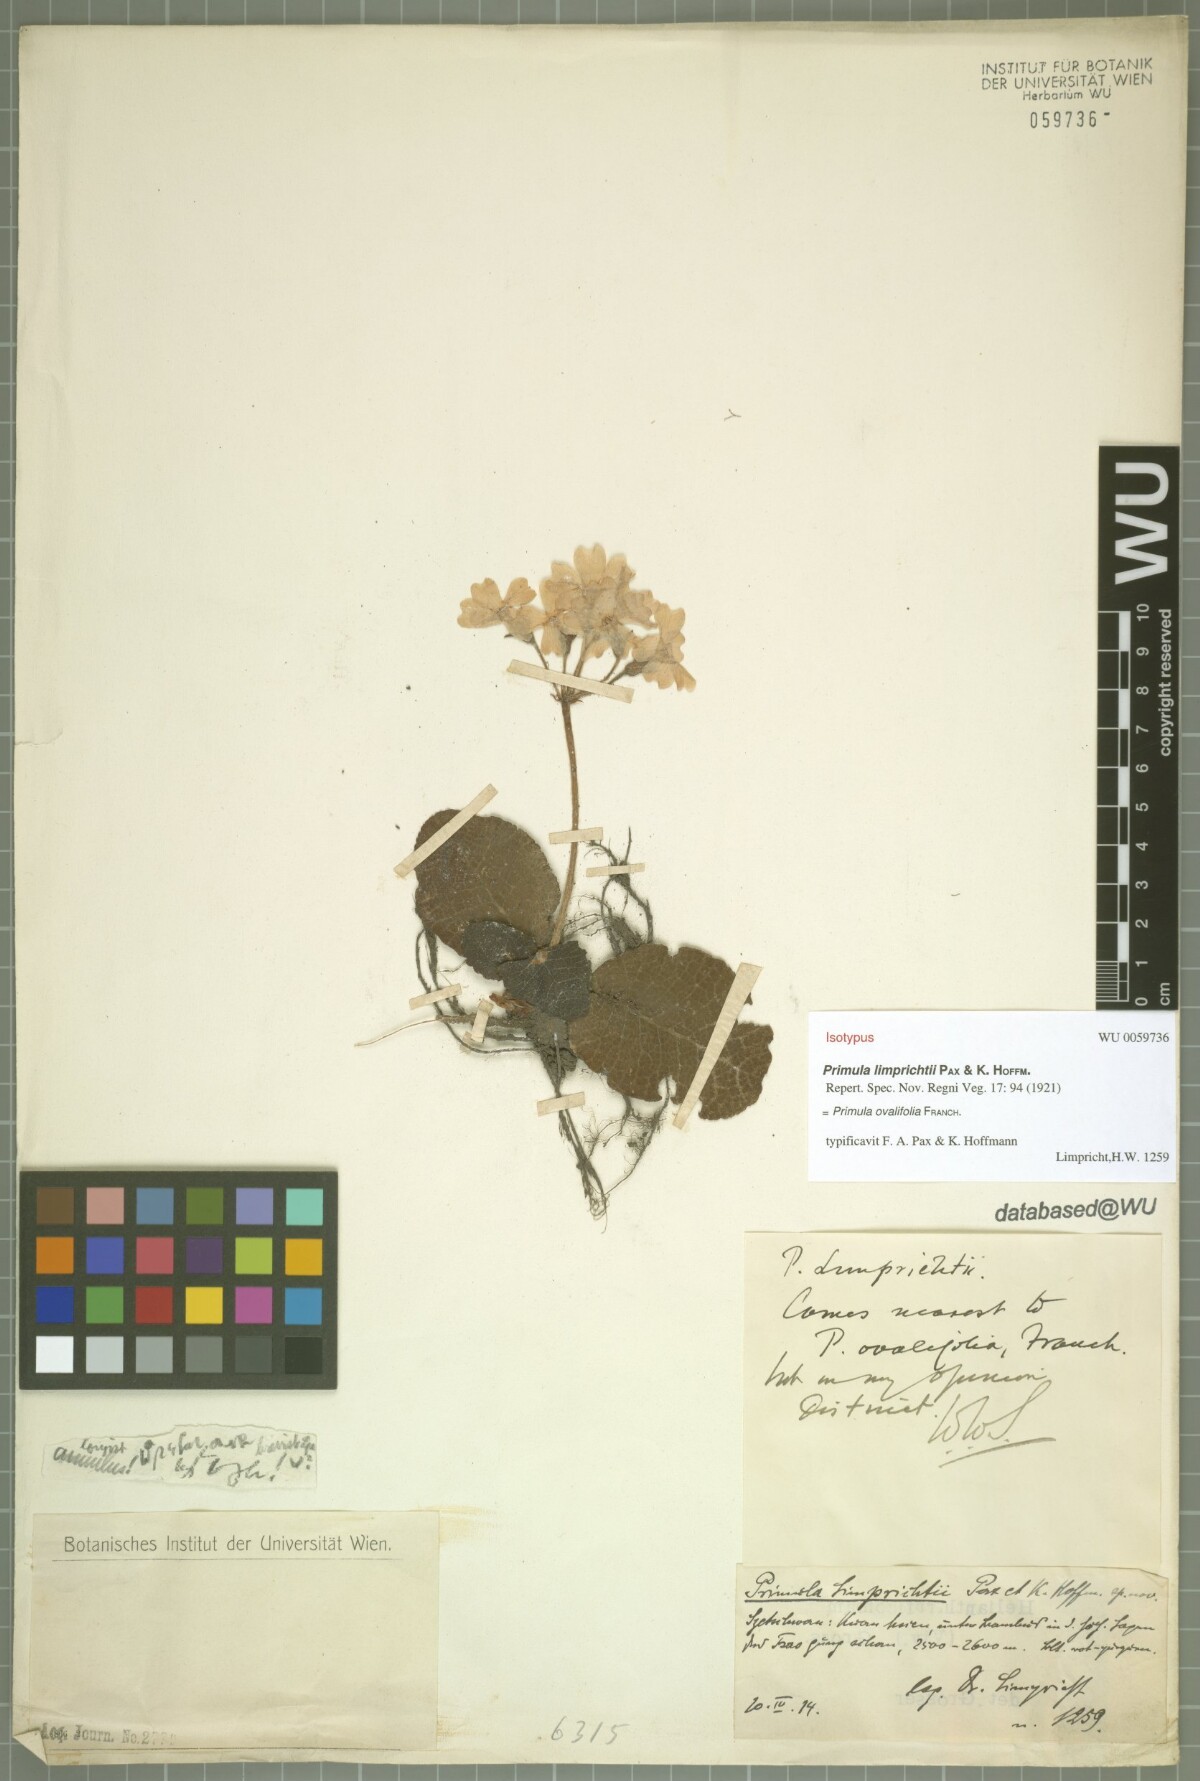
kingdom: Plantae
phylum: Tracheophyta
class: Magnoliopsida
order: Ericales
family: Primulaceae
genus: Primula
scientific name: Primula ovalifolia
